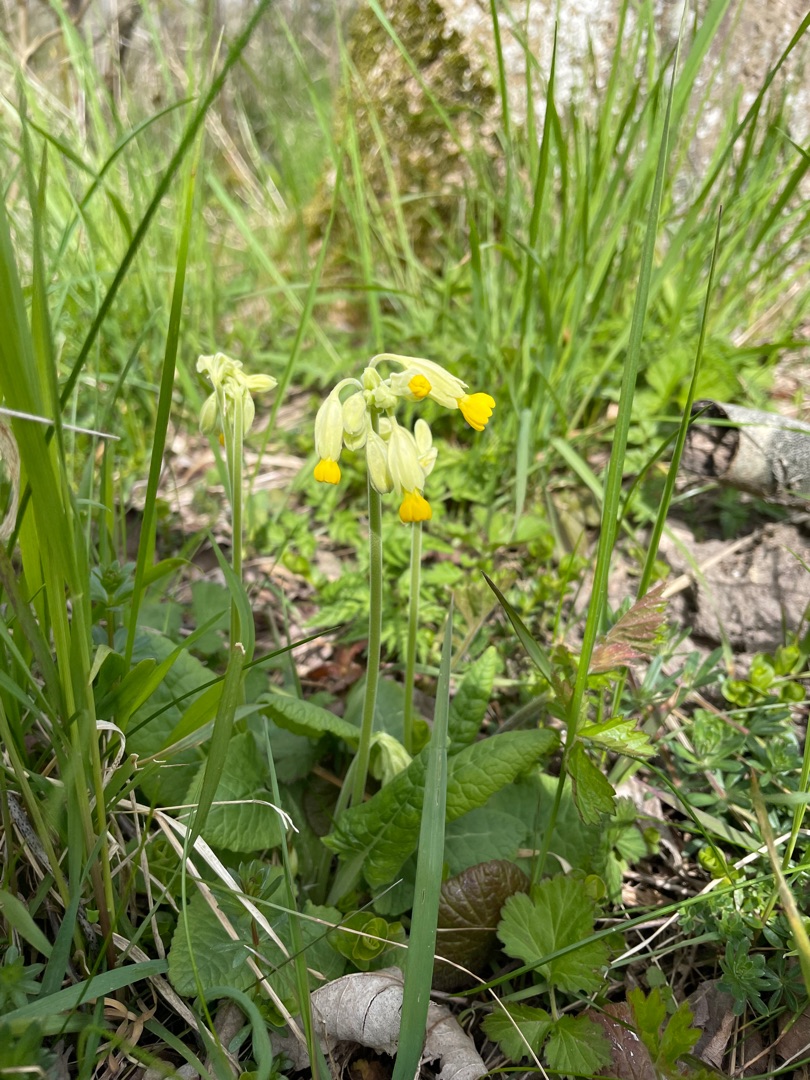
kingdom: Plantae
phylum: Tracheophyta
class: Magnoliopsida
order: Ericales
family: Primulaceae
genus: Primula
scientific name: Primula veris
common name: Hulkravet kodriver
